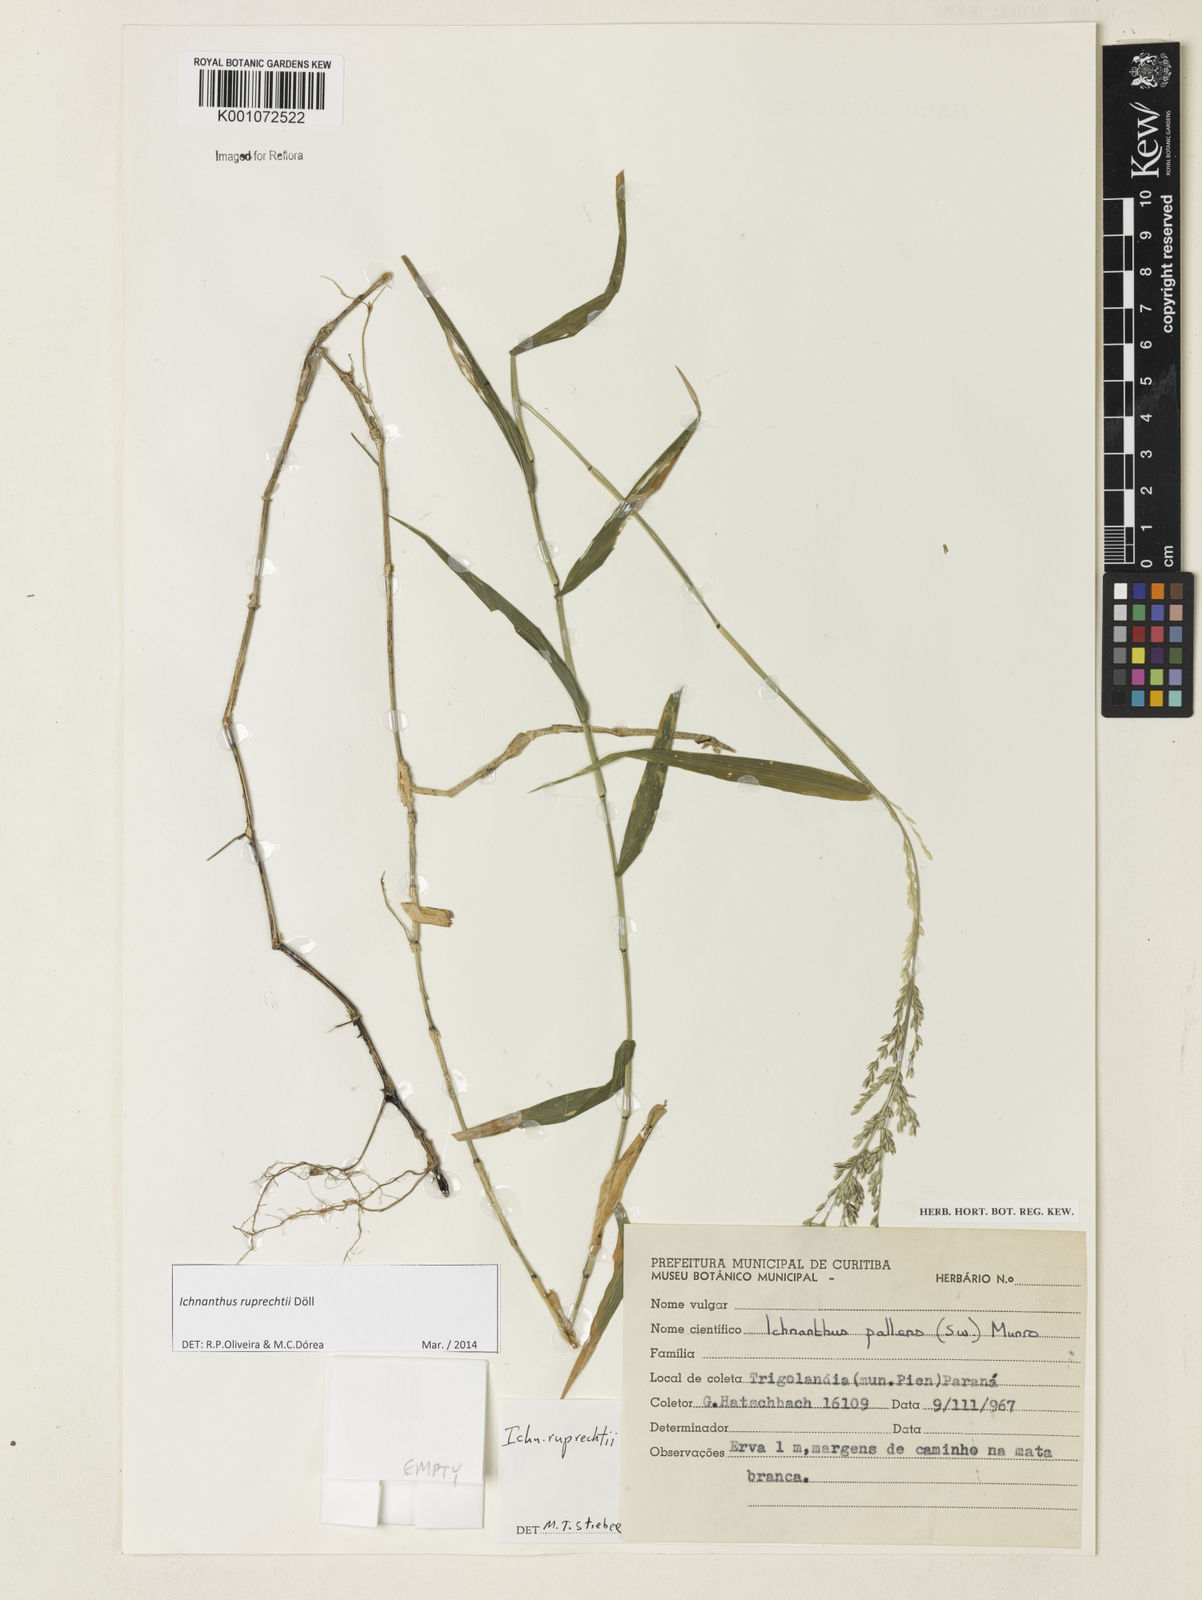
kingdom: Plantae
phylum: Tracheophyta
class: Liliopsida
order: Poales
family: Poaceae
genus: Ichnanthus
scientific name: Ichnanthus
